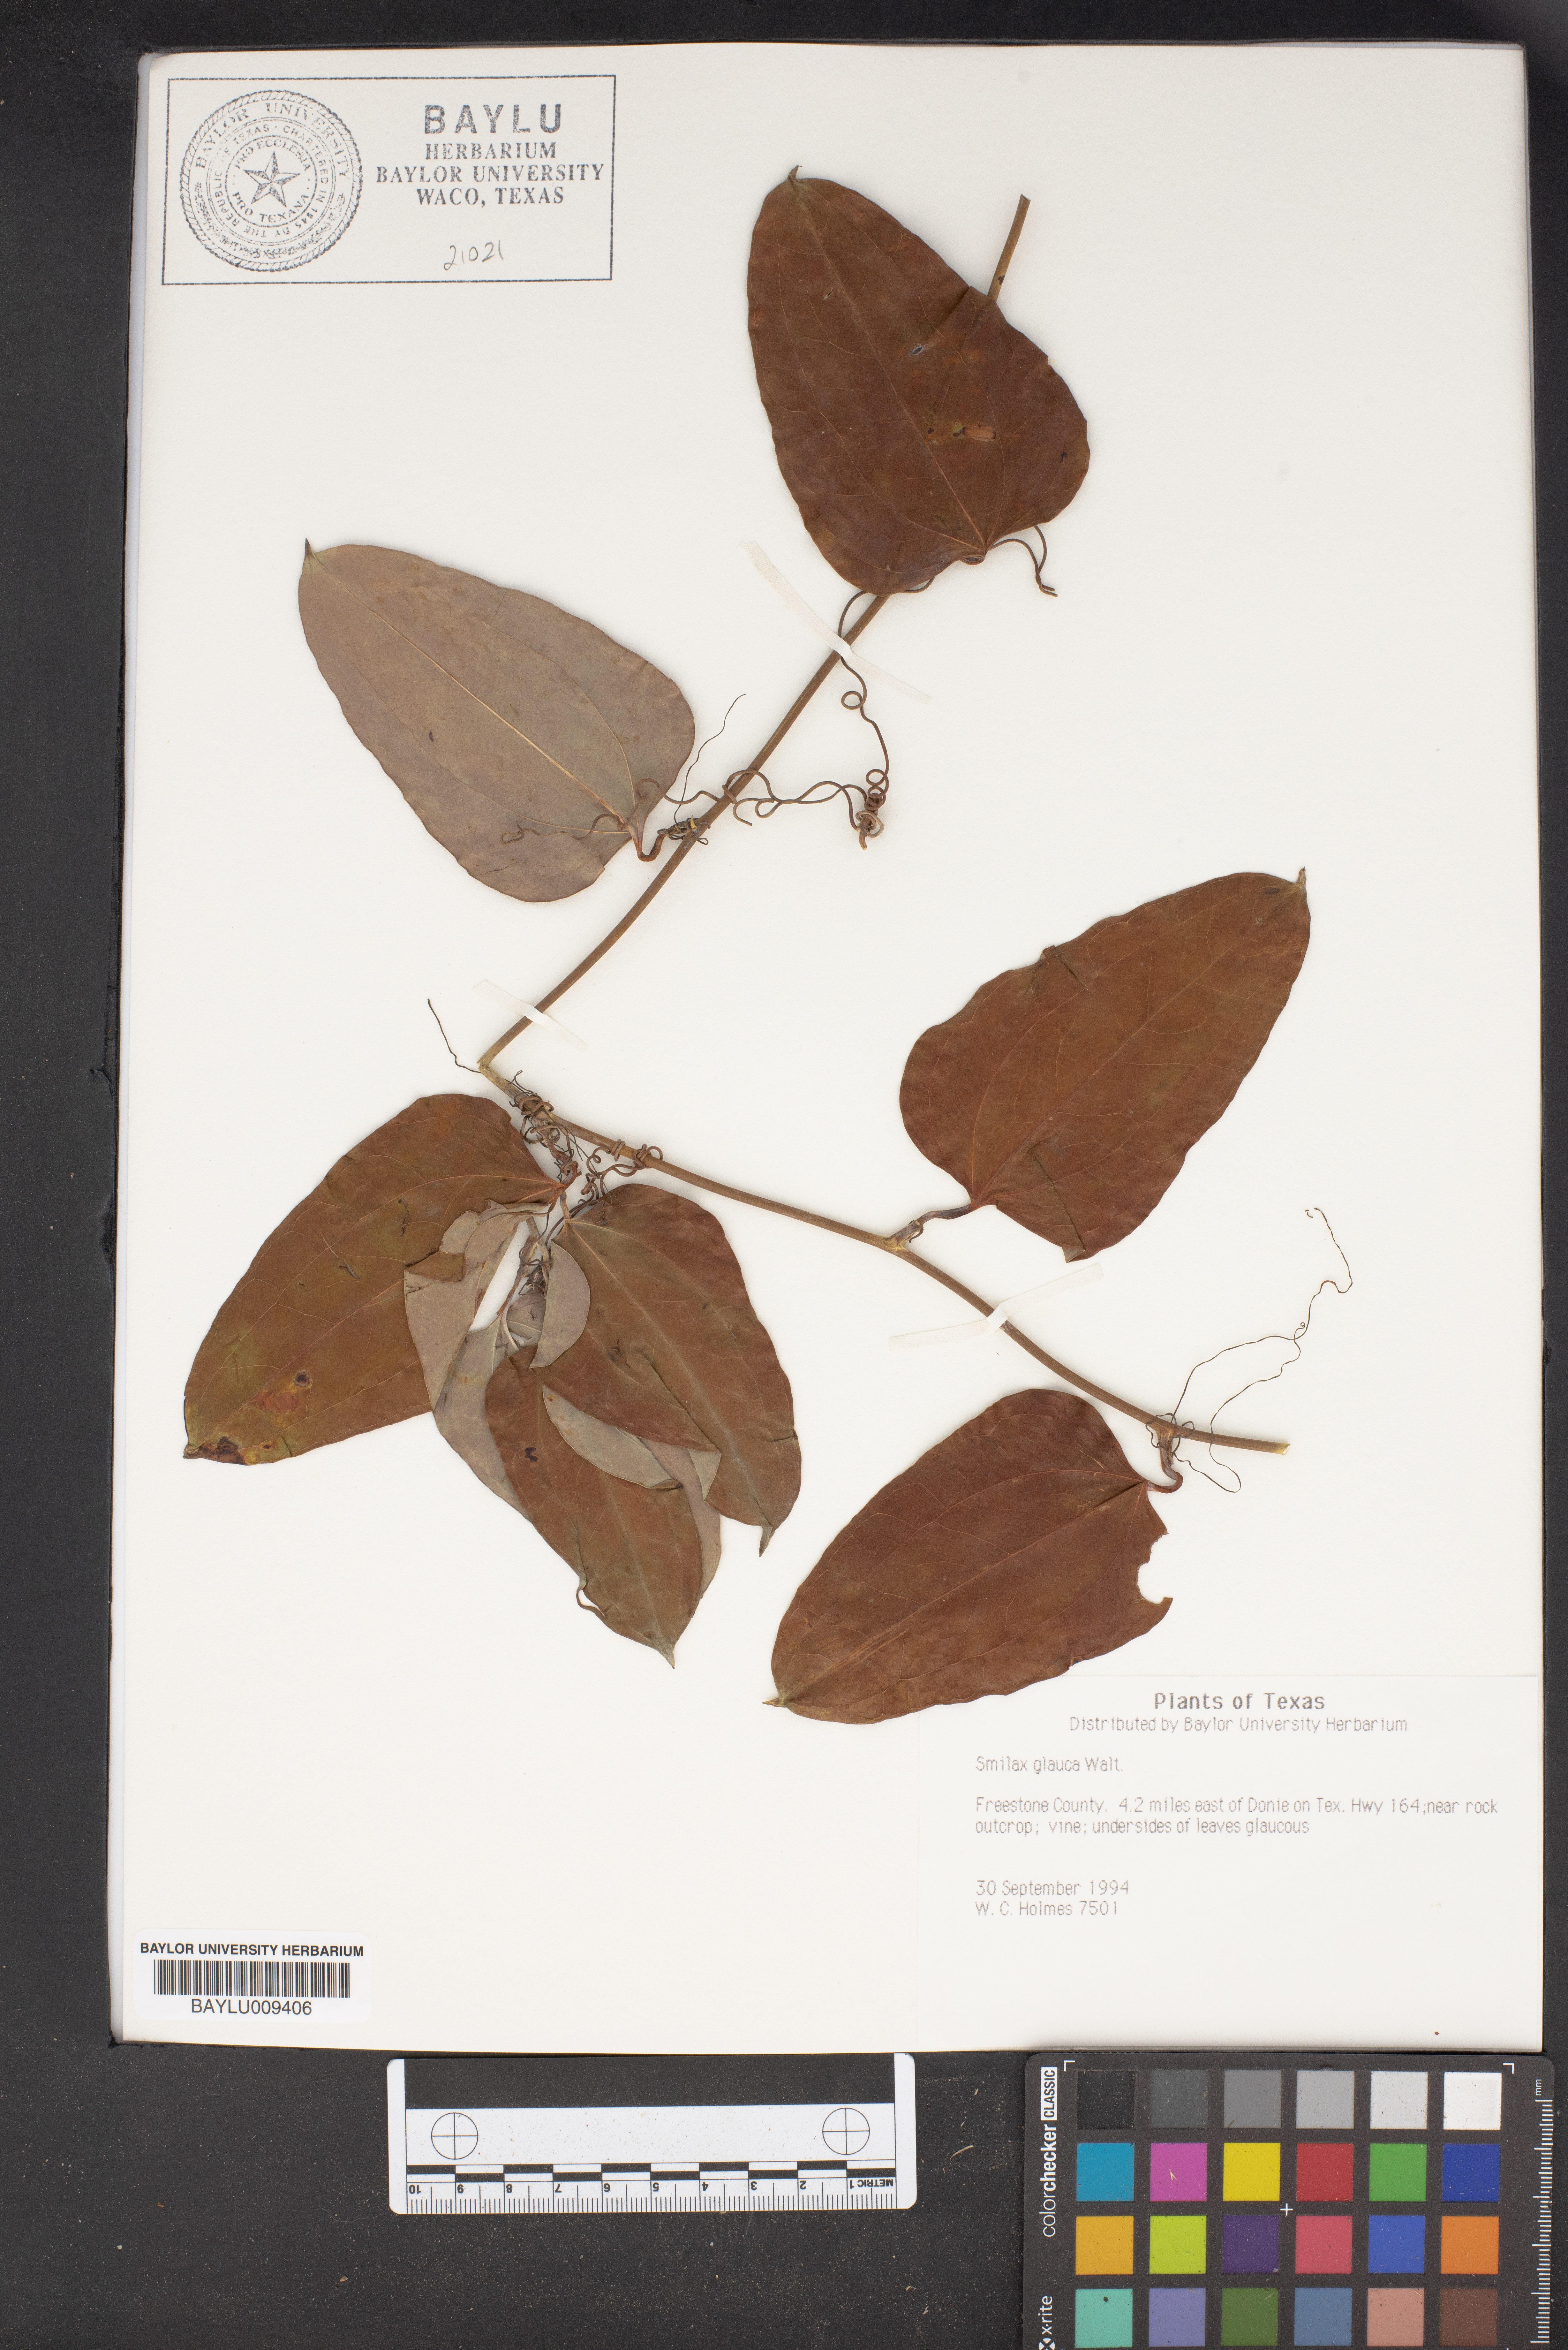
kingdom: Plantae
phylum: Tracheophyta
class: Liliopsida
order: Liliales
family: Smilacaceae
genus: Smilax
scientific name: Smilax glauca
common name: Cat greenbrier
